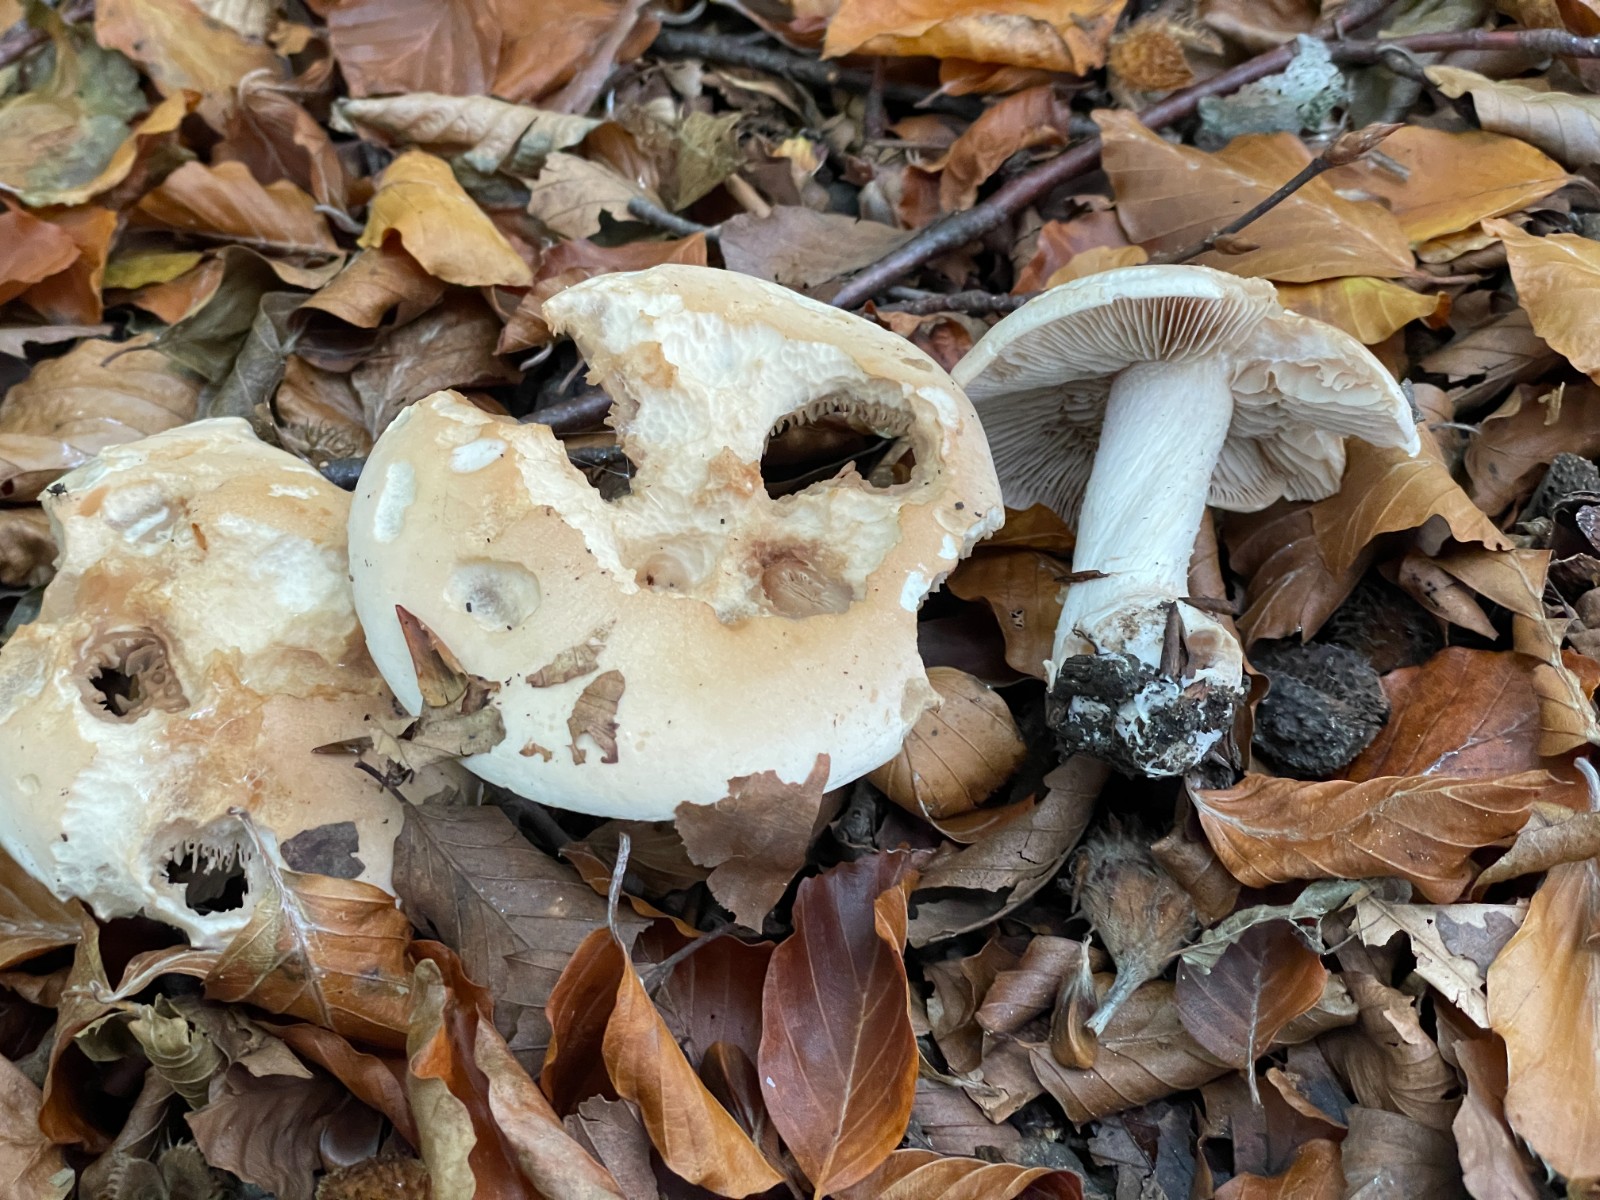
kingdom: Fungi
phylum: Basidiomycota
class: Agaricomycetes
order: Agaricales
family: Hymenogastraceae
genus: Hebeloma
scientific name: Hebeloma sinapizans
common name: ræddike-tåreblad
